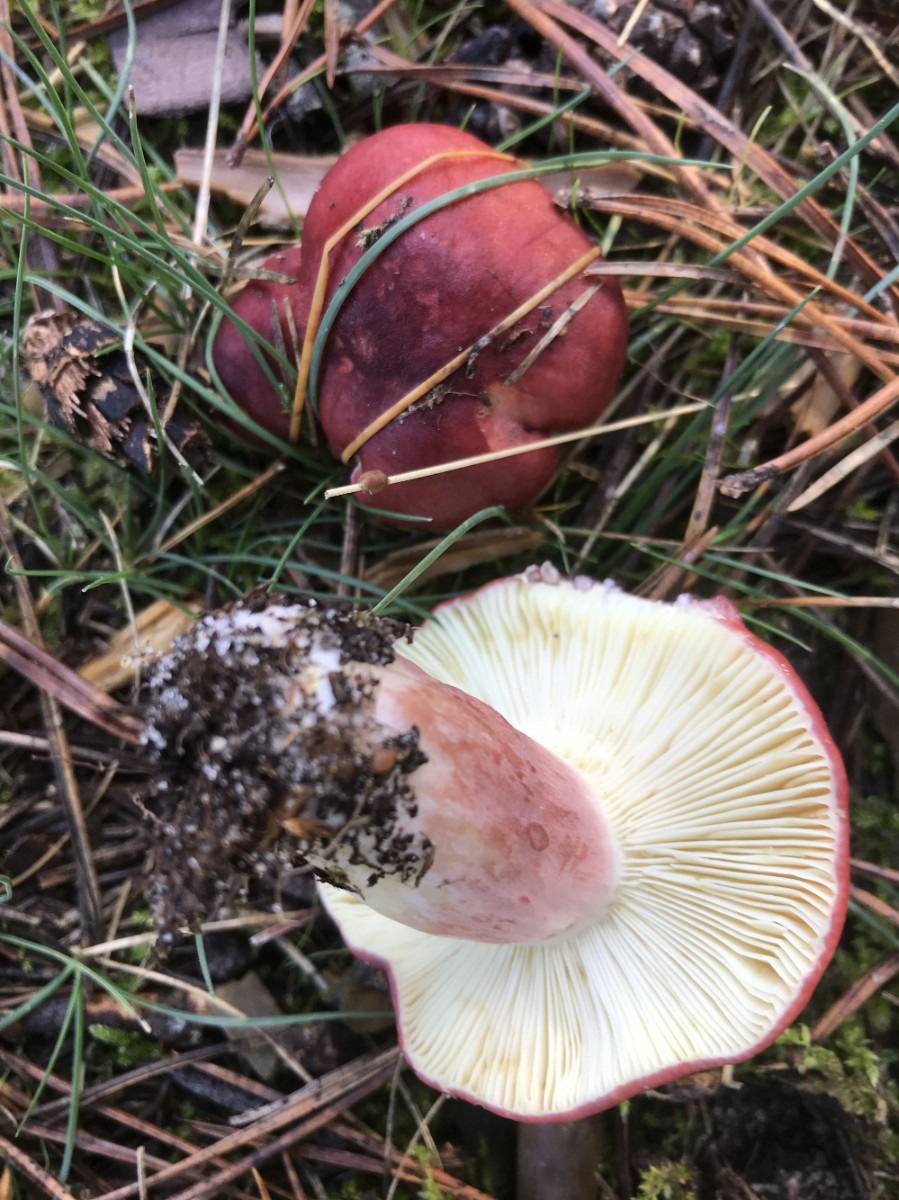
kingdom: Fungi
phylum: Basidiomycota
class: Agaricomycetes
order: Russulales
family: Russulaceae
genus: Russula
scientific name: Russula sardonia
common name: citronbladet skørhat
